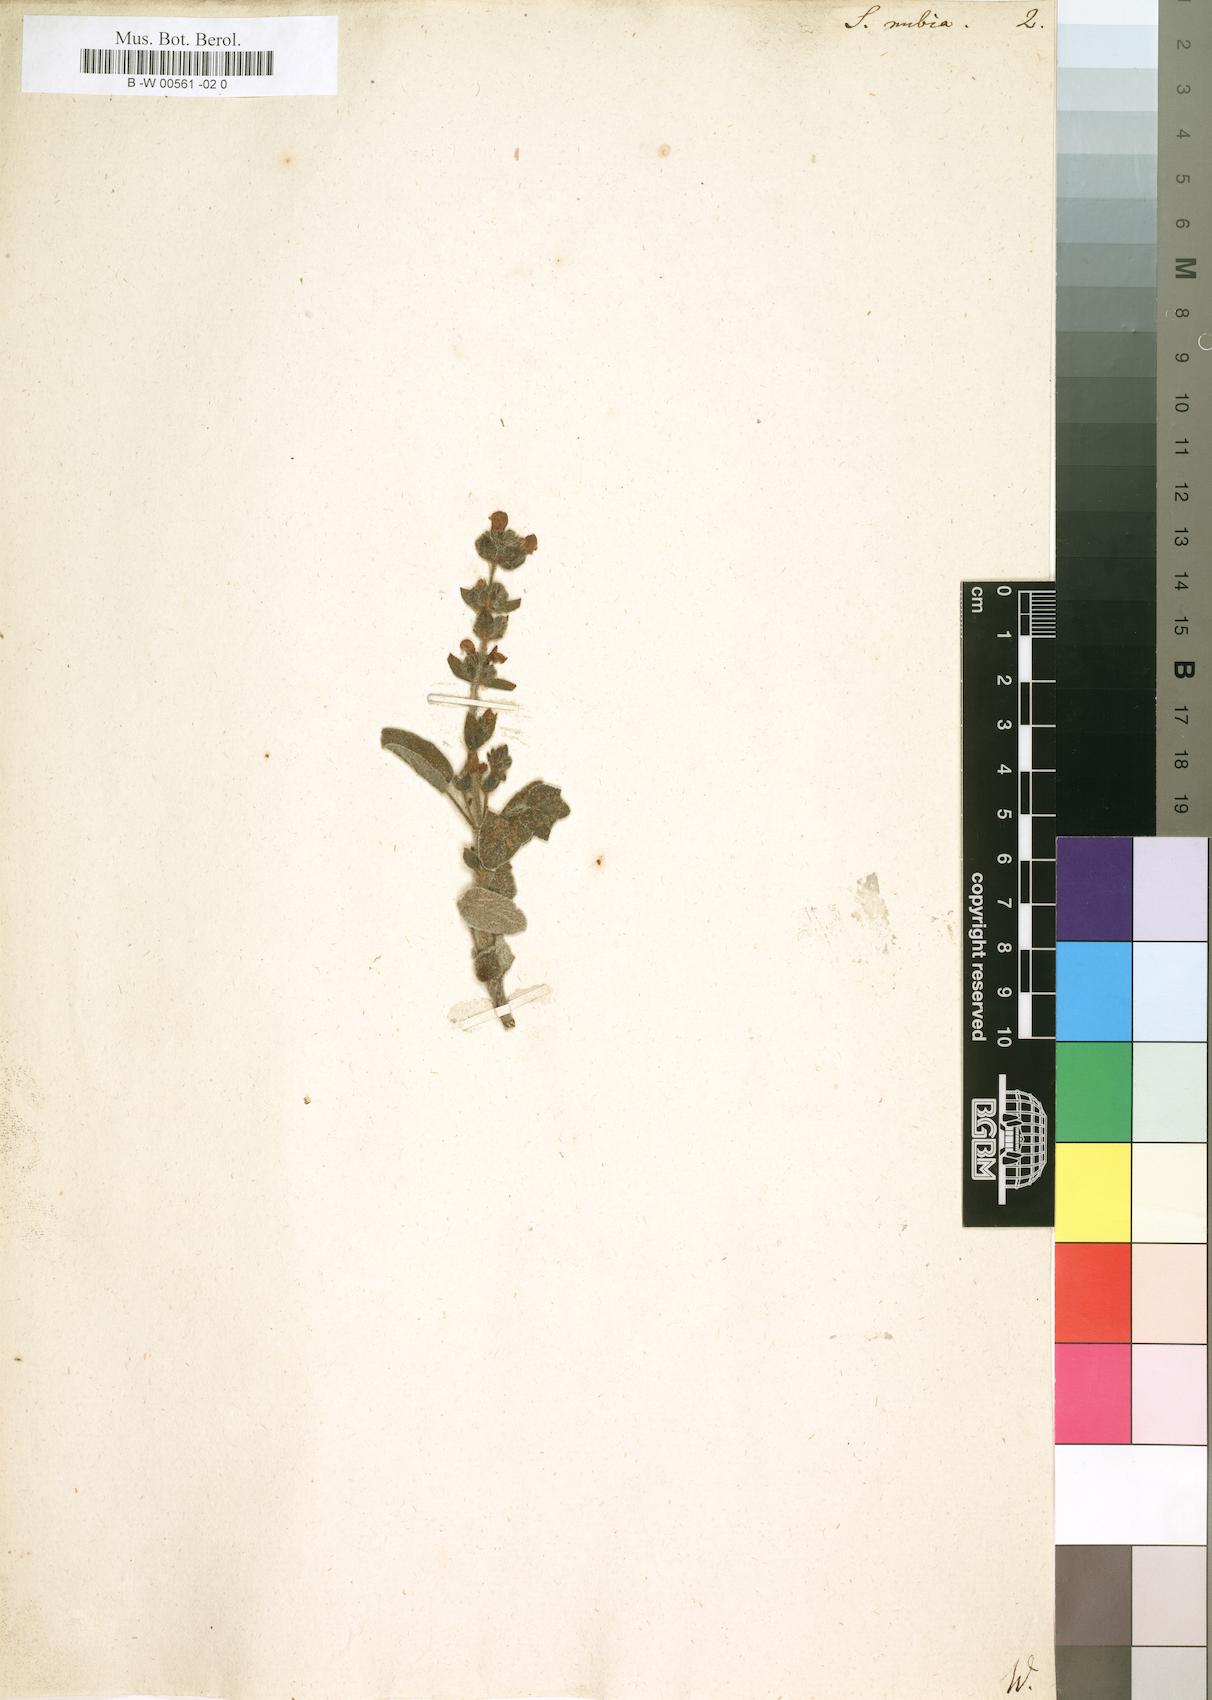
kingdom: Plantae
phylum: Tracheophyta
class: Magnoliopsida
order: Lamiales
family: Lamiaceae
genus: Salvia
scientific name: Salvia nubia
